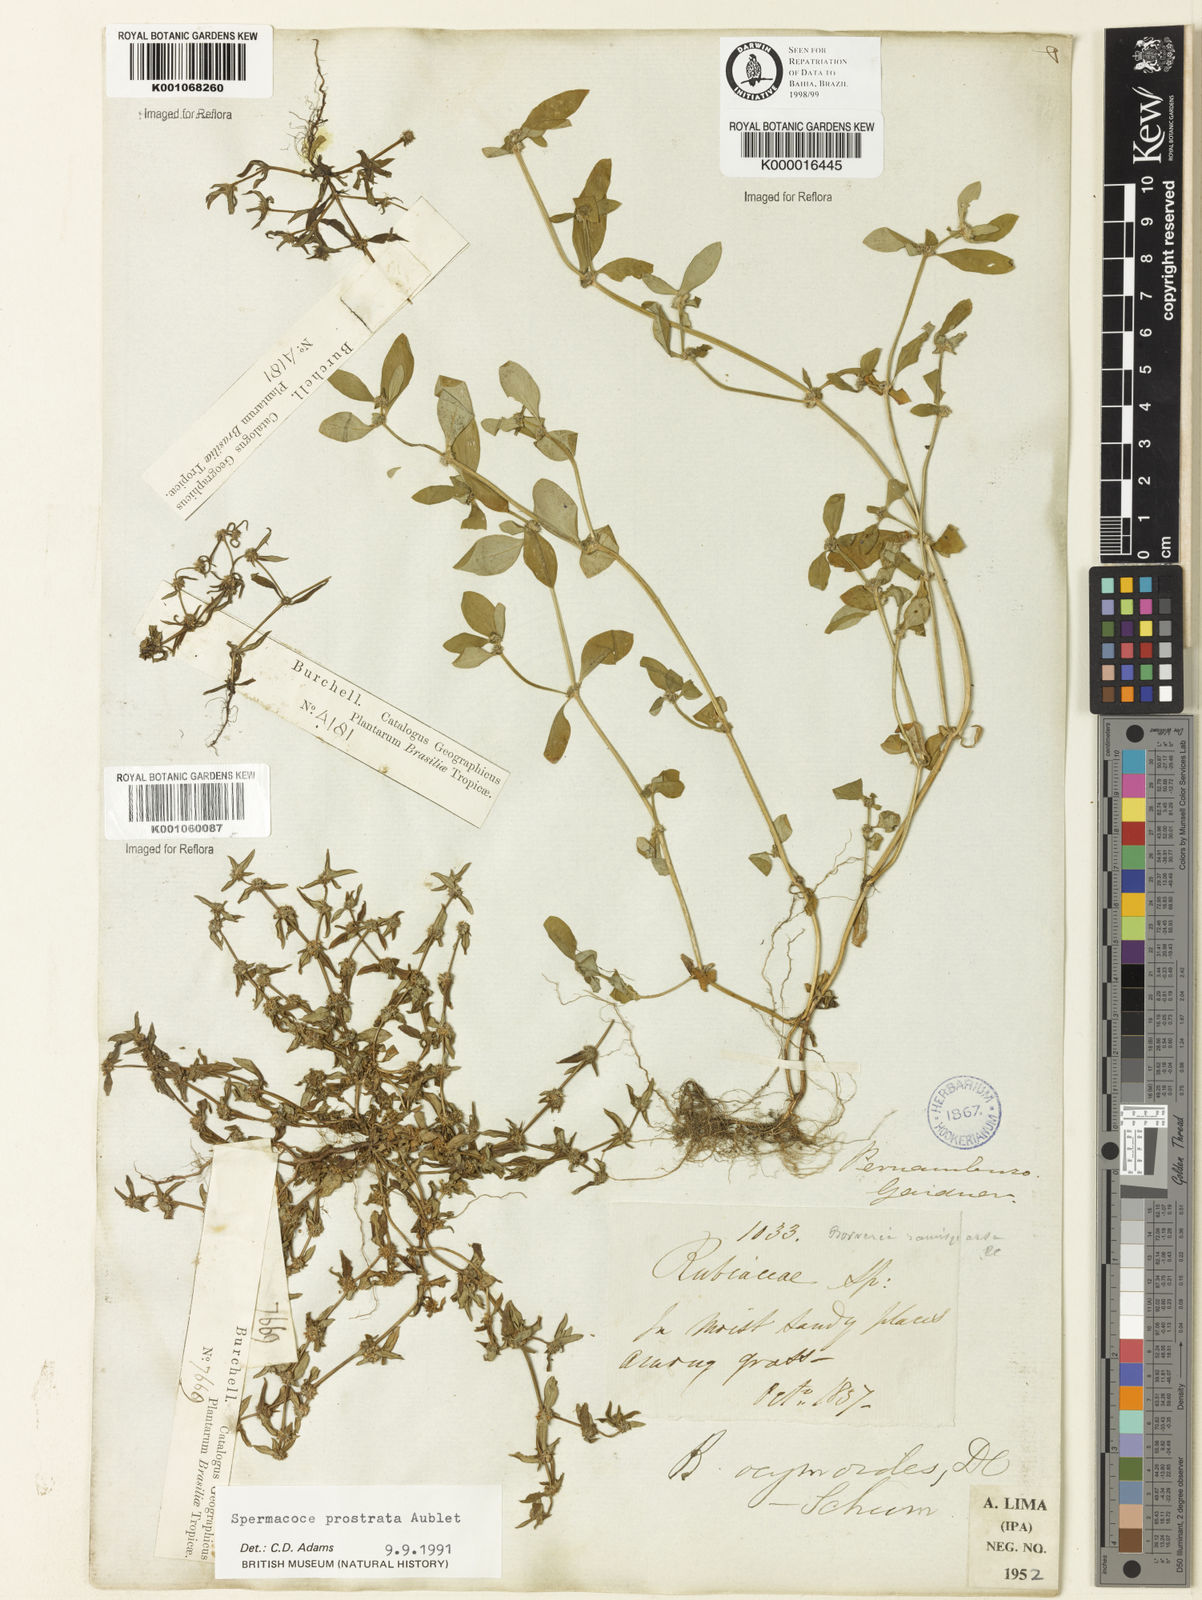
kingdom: Plantae
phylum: Tracheophyta
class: Magnoliopsida
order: Gentianales
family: Rubiaceae
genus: Spermacoce
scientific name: Spermacoce
